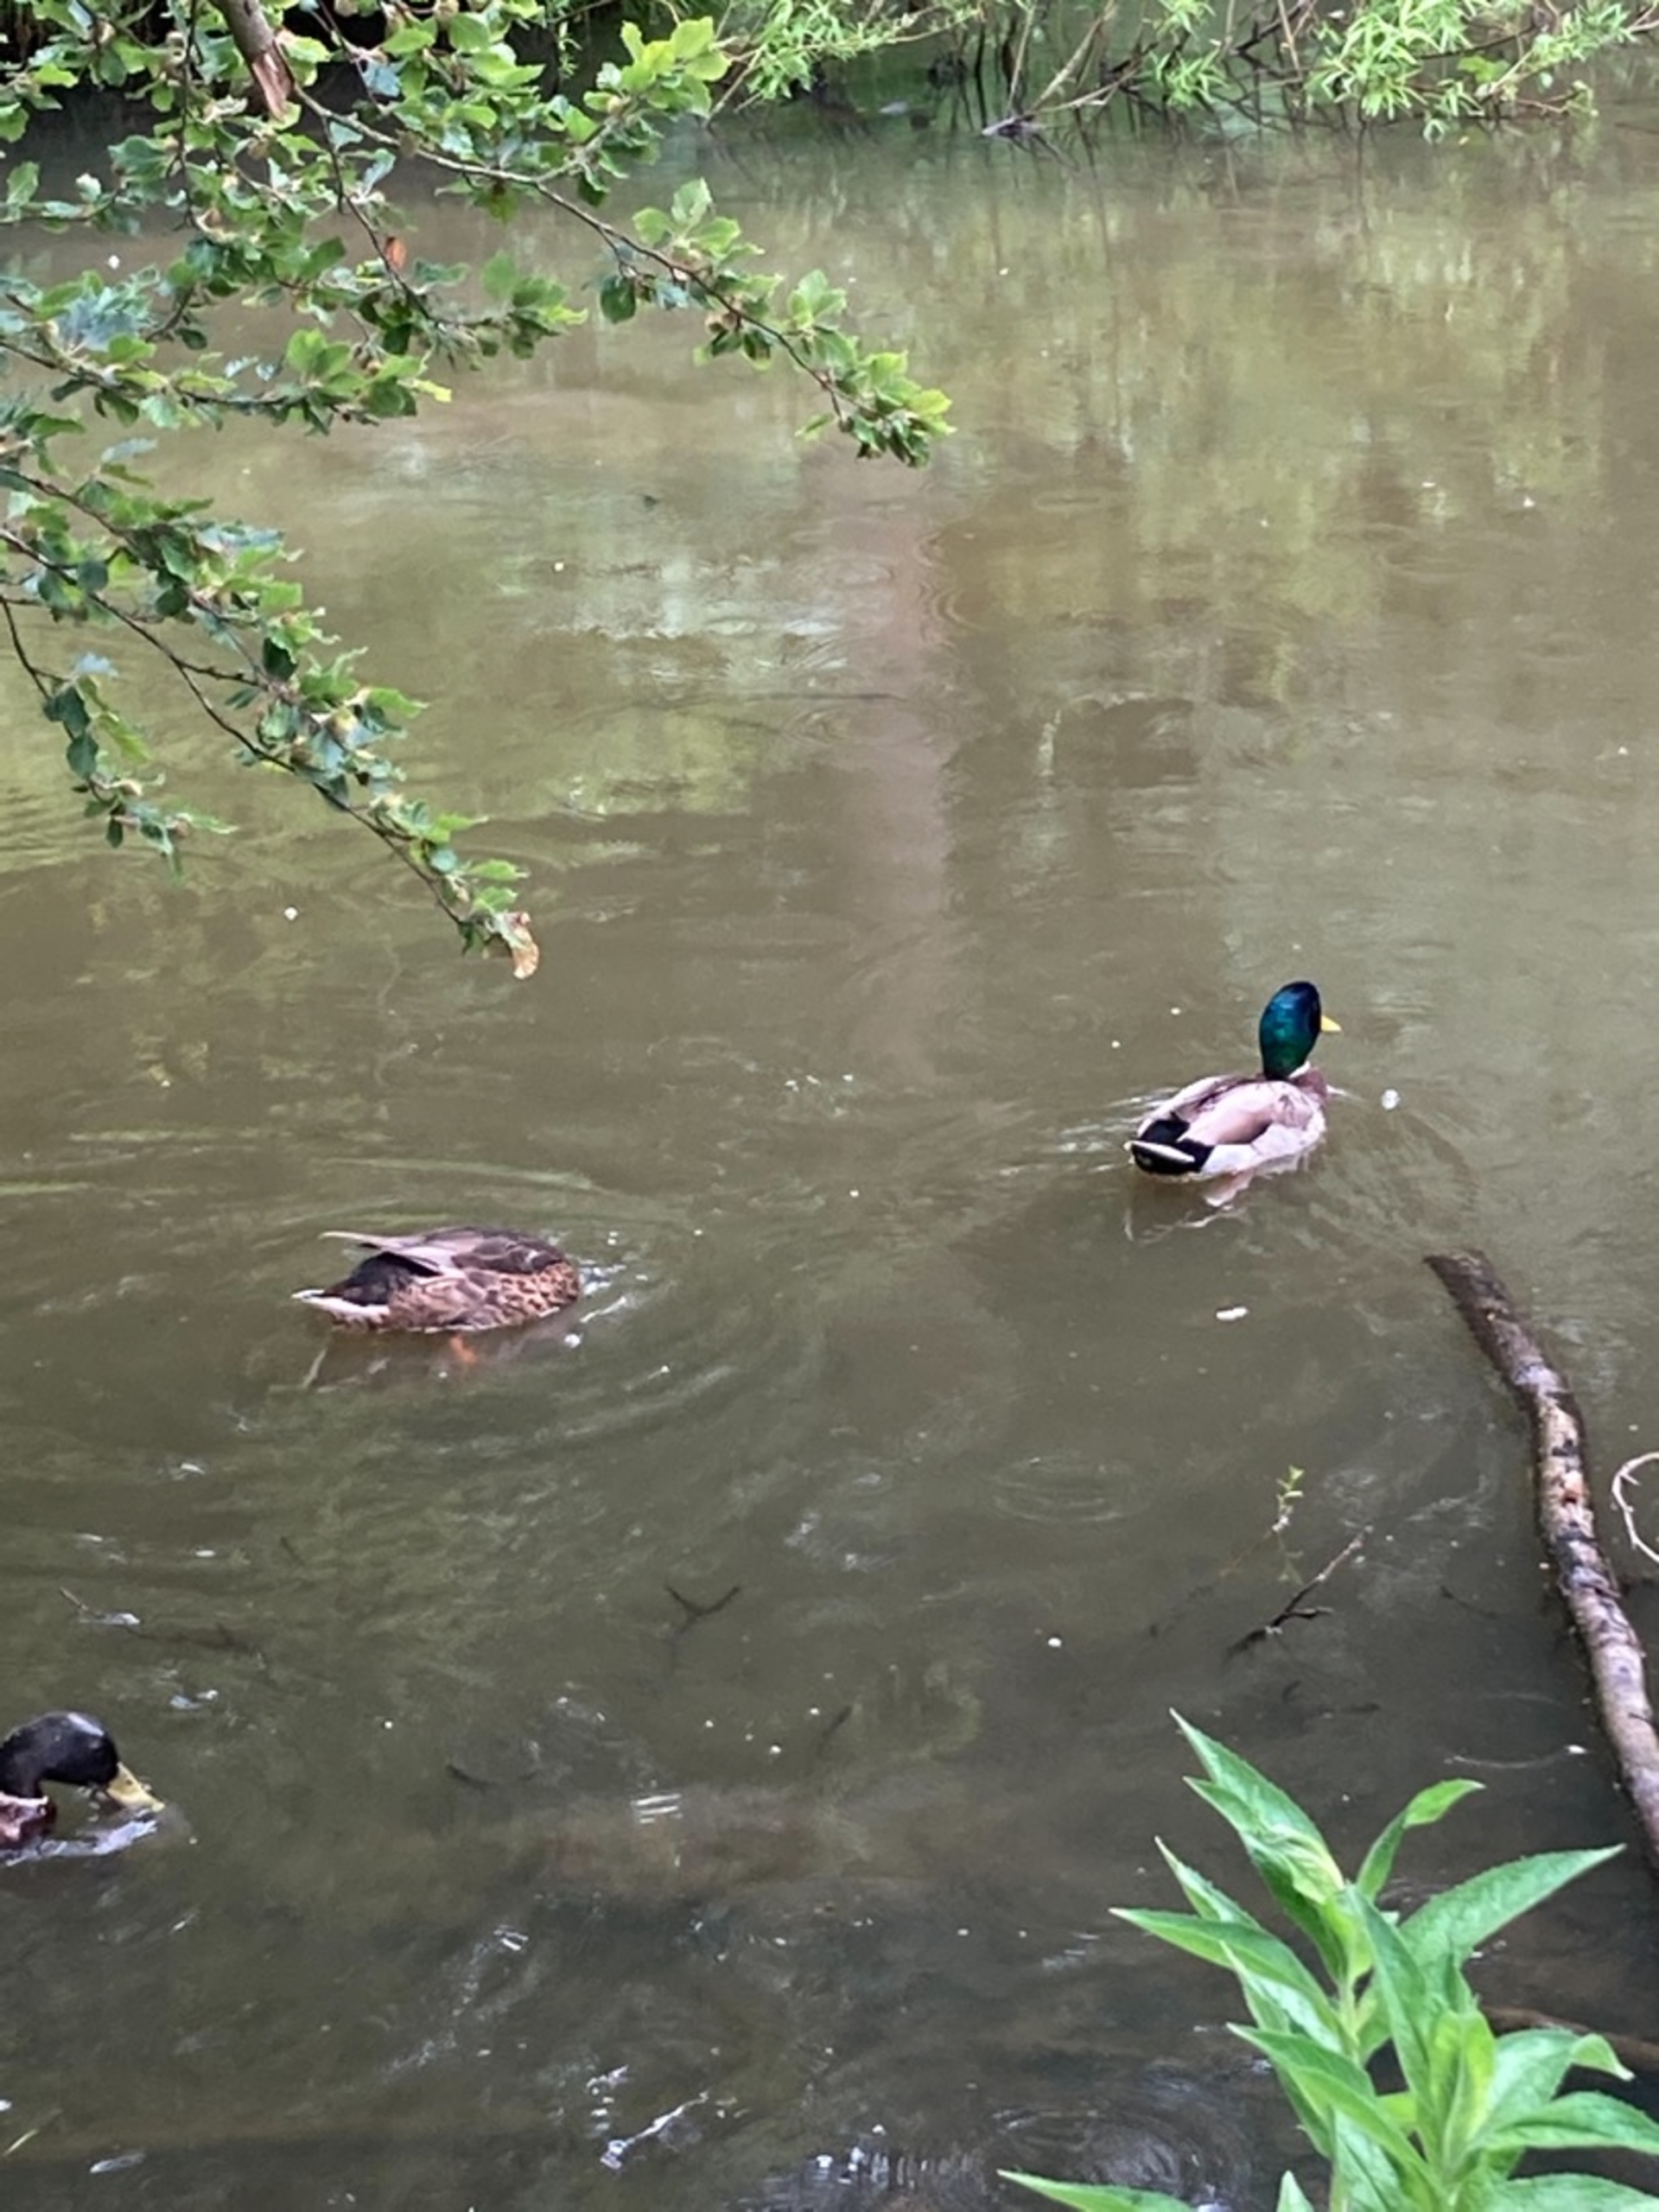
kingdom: Animalia
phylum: Chordata
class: Aves
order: Anseriformes
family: Anatidae
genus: Anas
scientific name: Anas platyrhynchos
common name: Gråand
